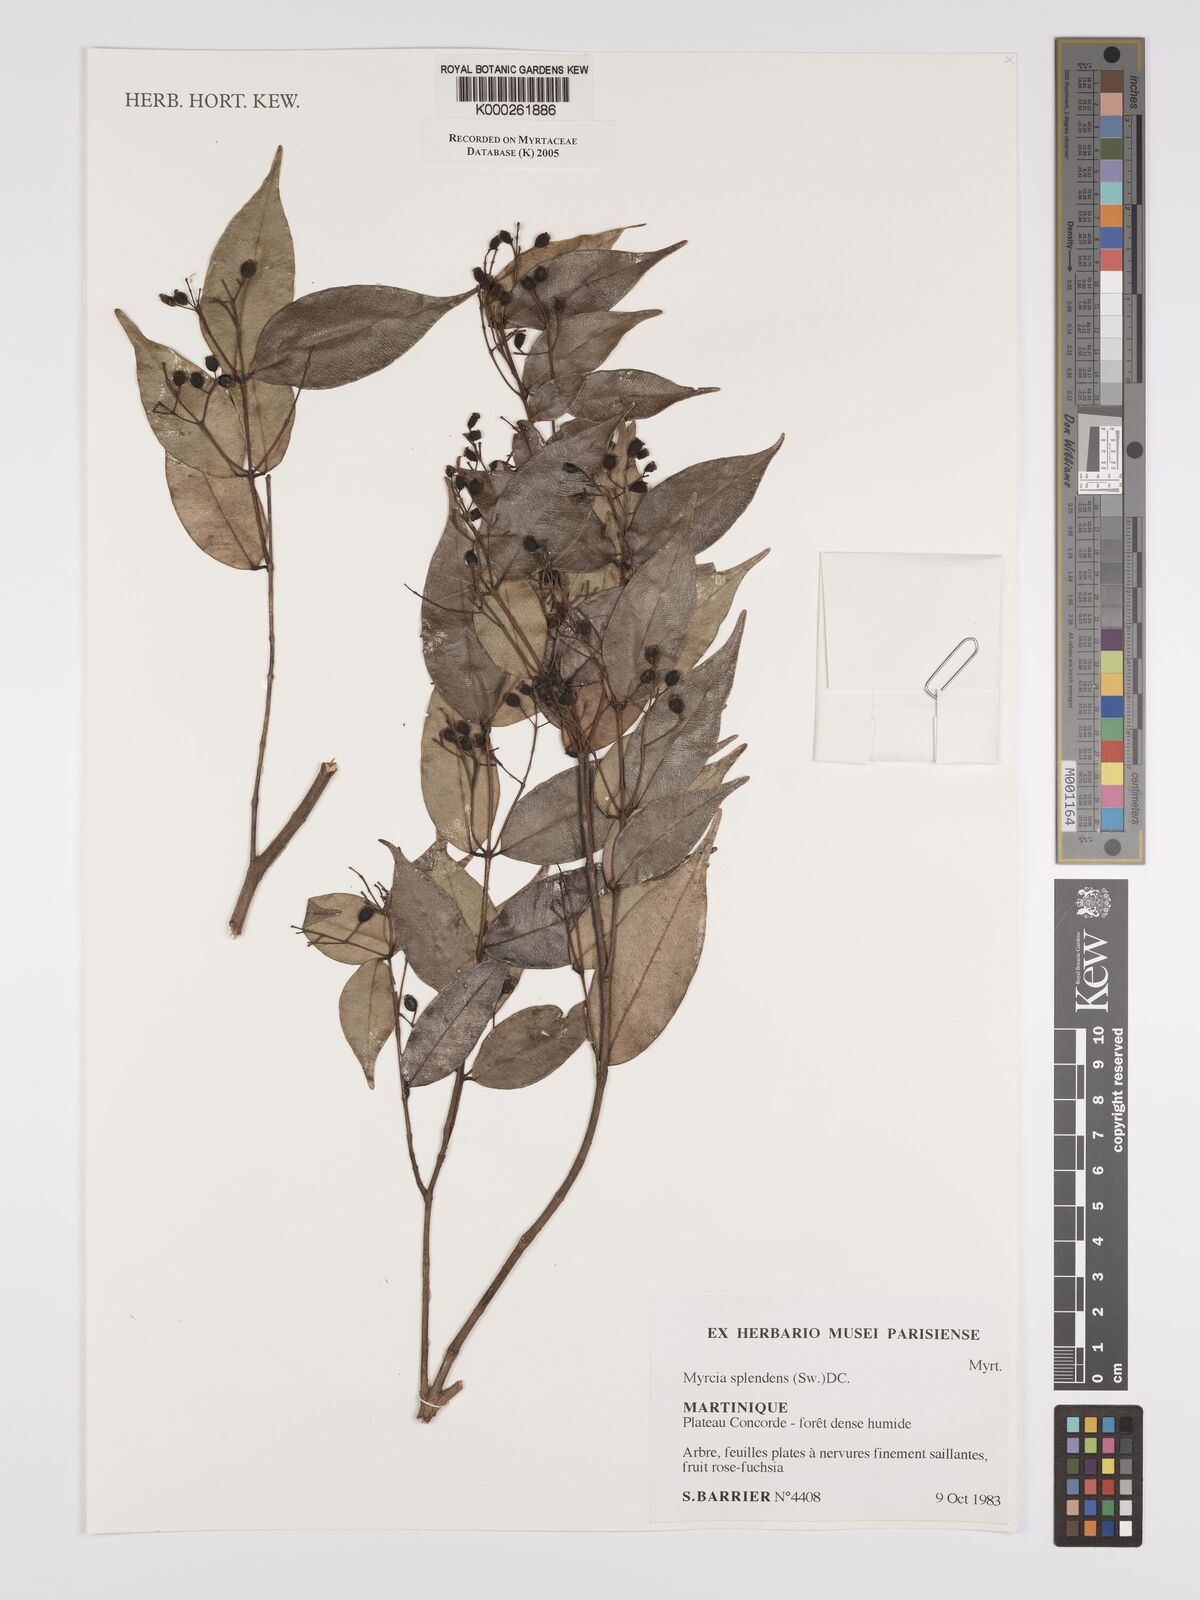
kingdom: Plantae
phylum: Tracheophyta
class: Magnoliopsida
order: Myrtales
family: Myrtaceae
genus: Myrcia
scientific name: Myrcia splendens
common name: Surinam cherry
